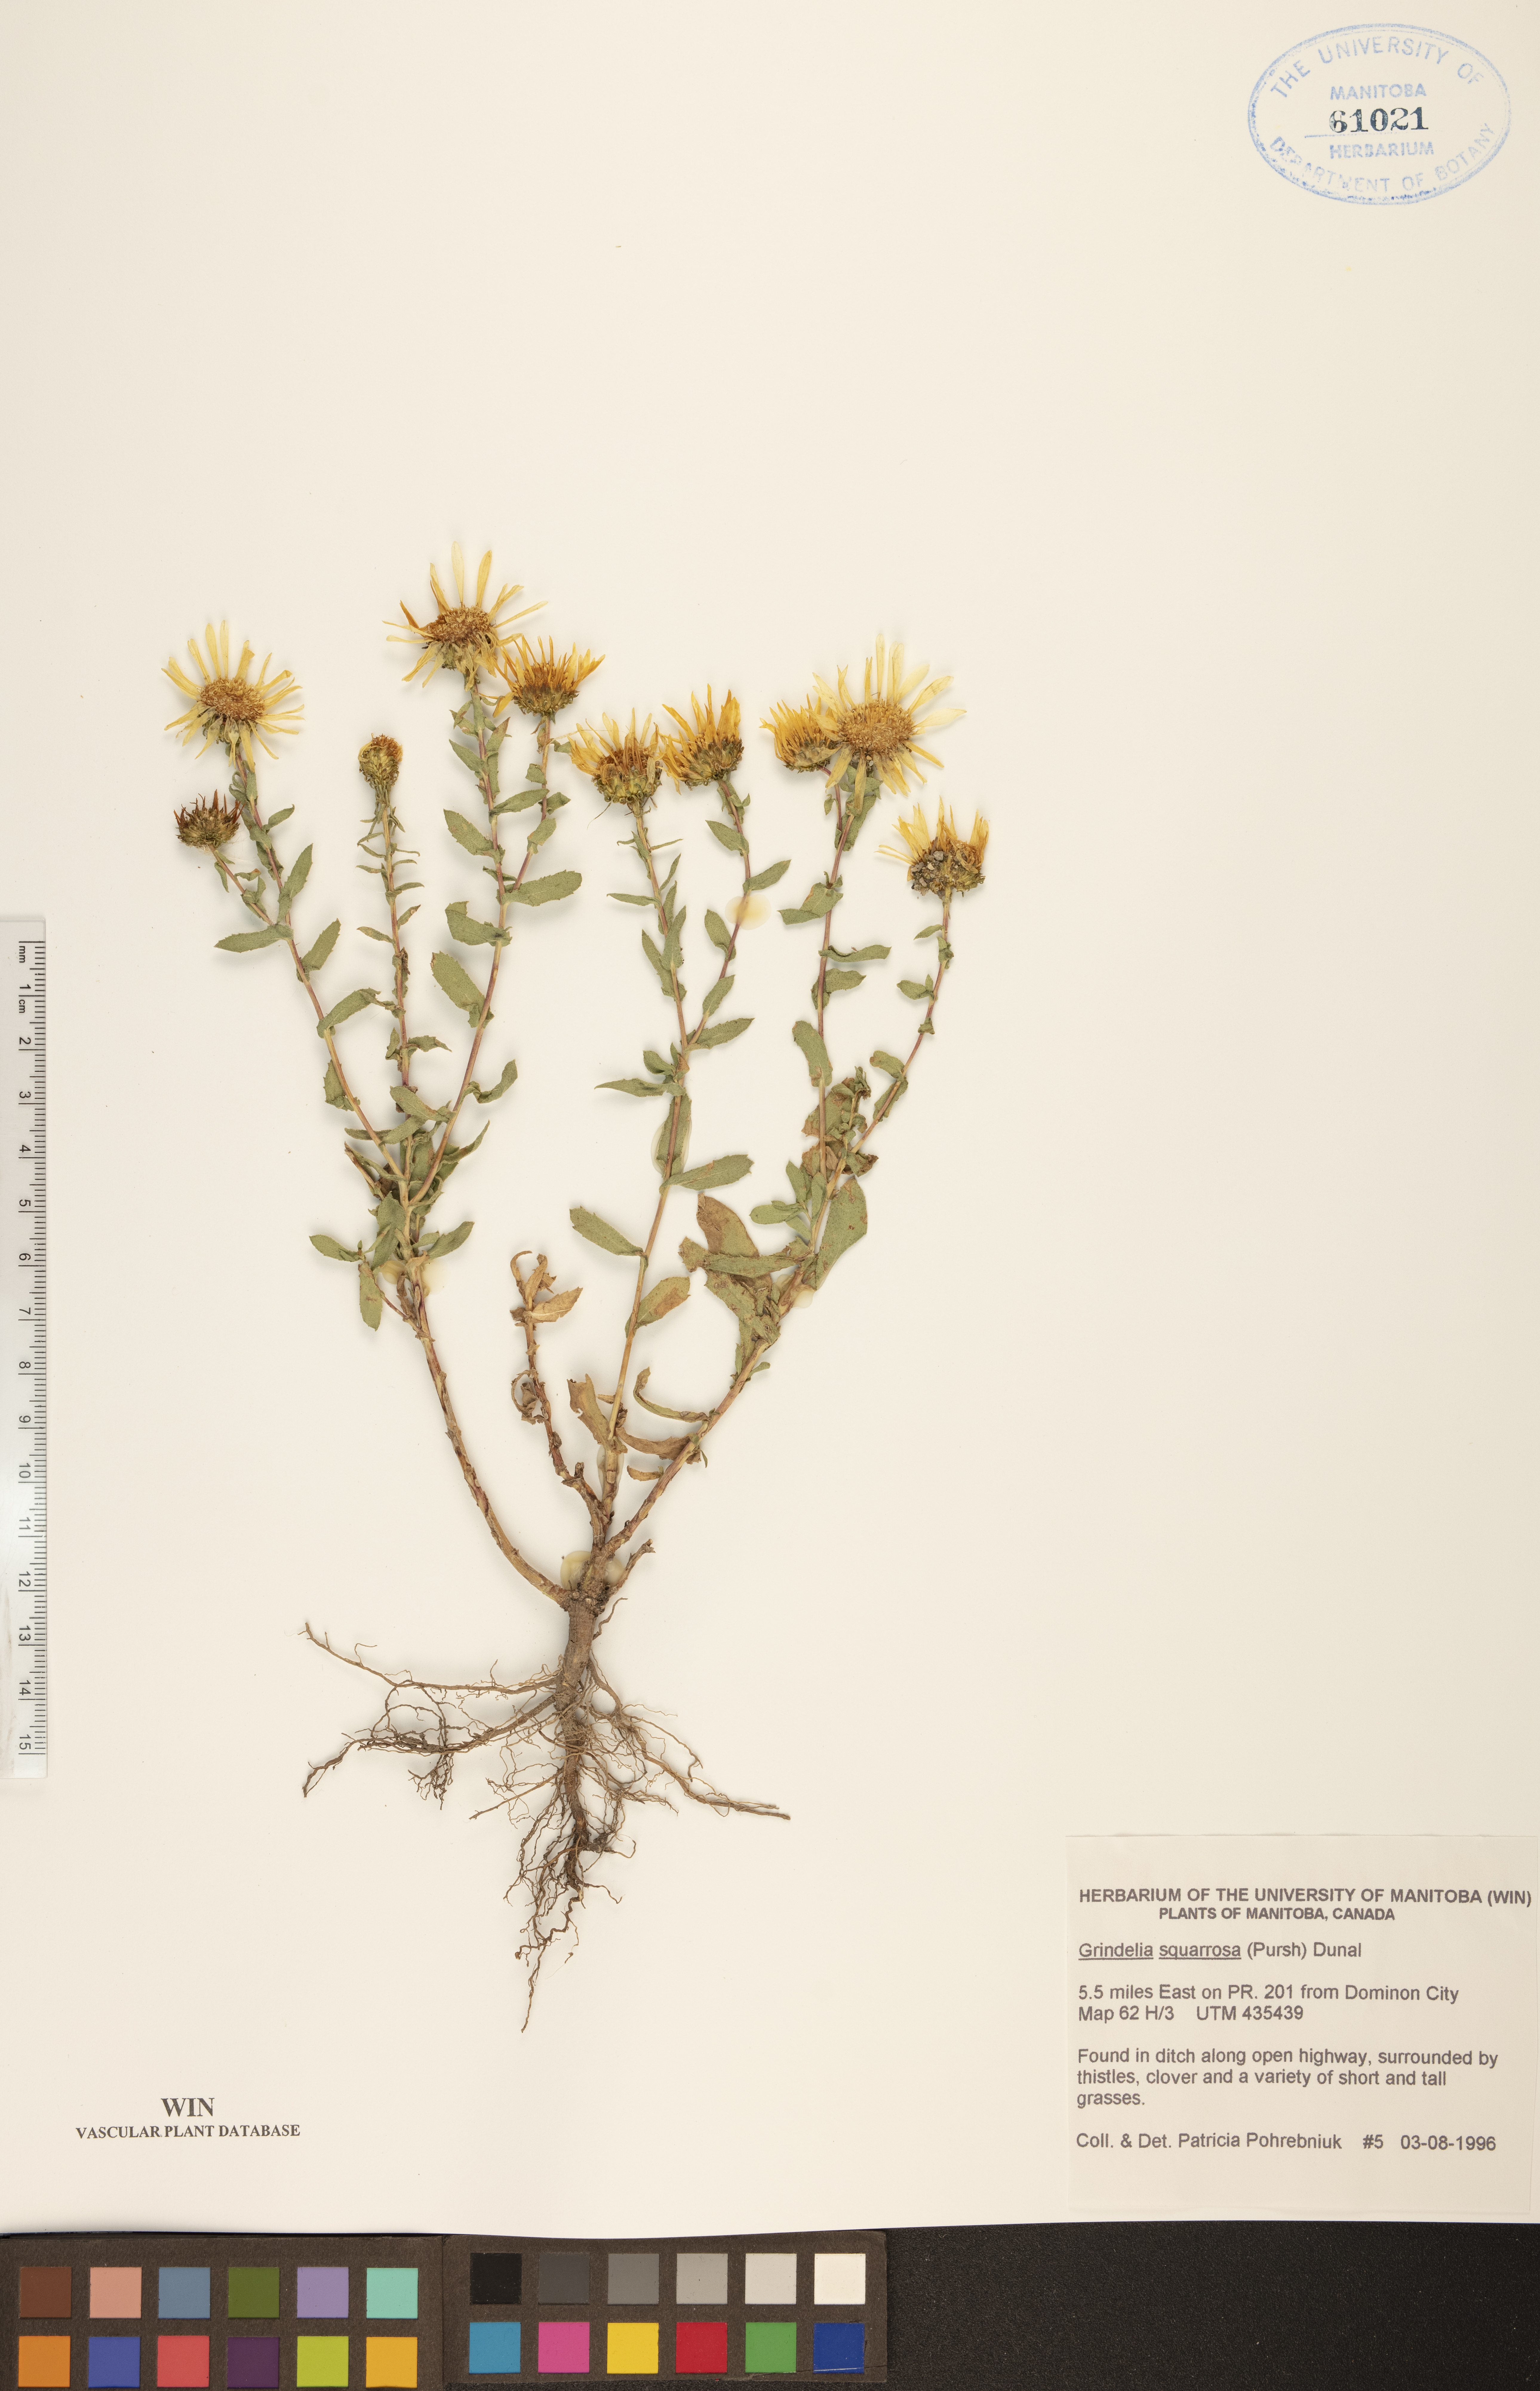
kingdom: Plantae
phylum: Tracheophyta
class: Magnoliopsida
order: Asterales
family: Asteraceae
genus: Grindelia
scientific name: Grindelia squarrosa
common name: Curly-cup gumweed
